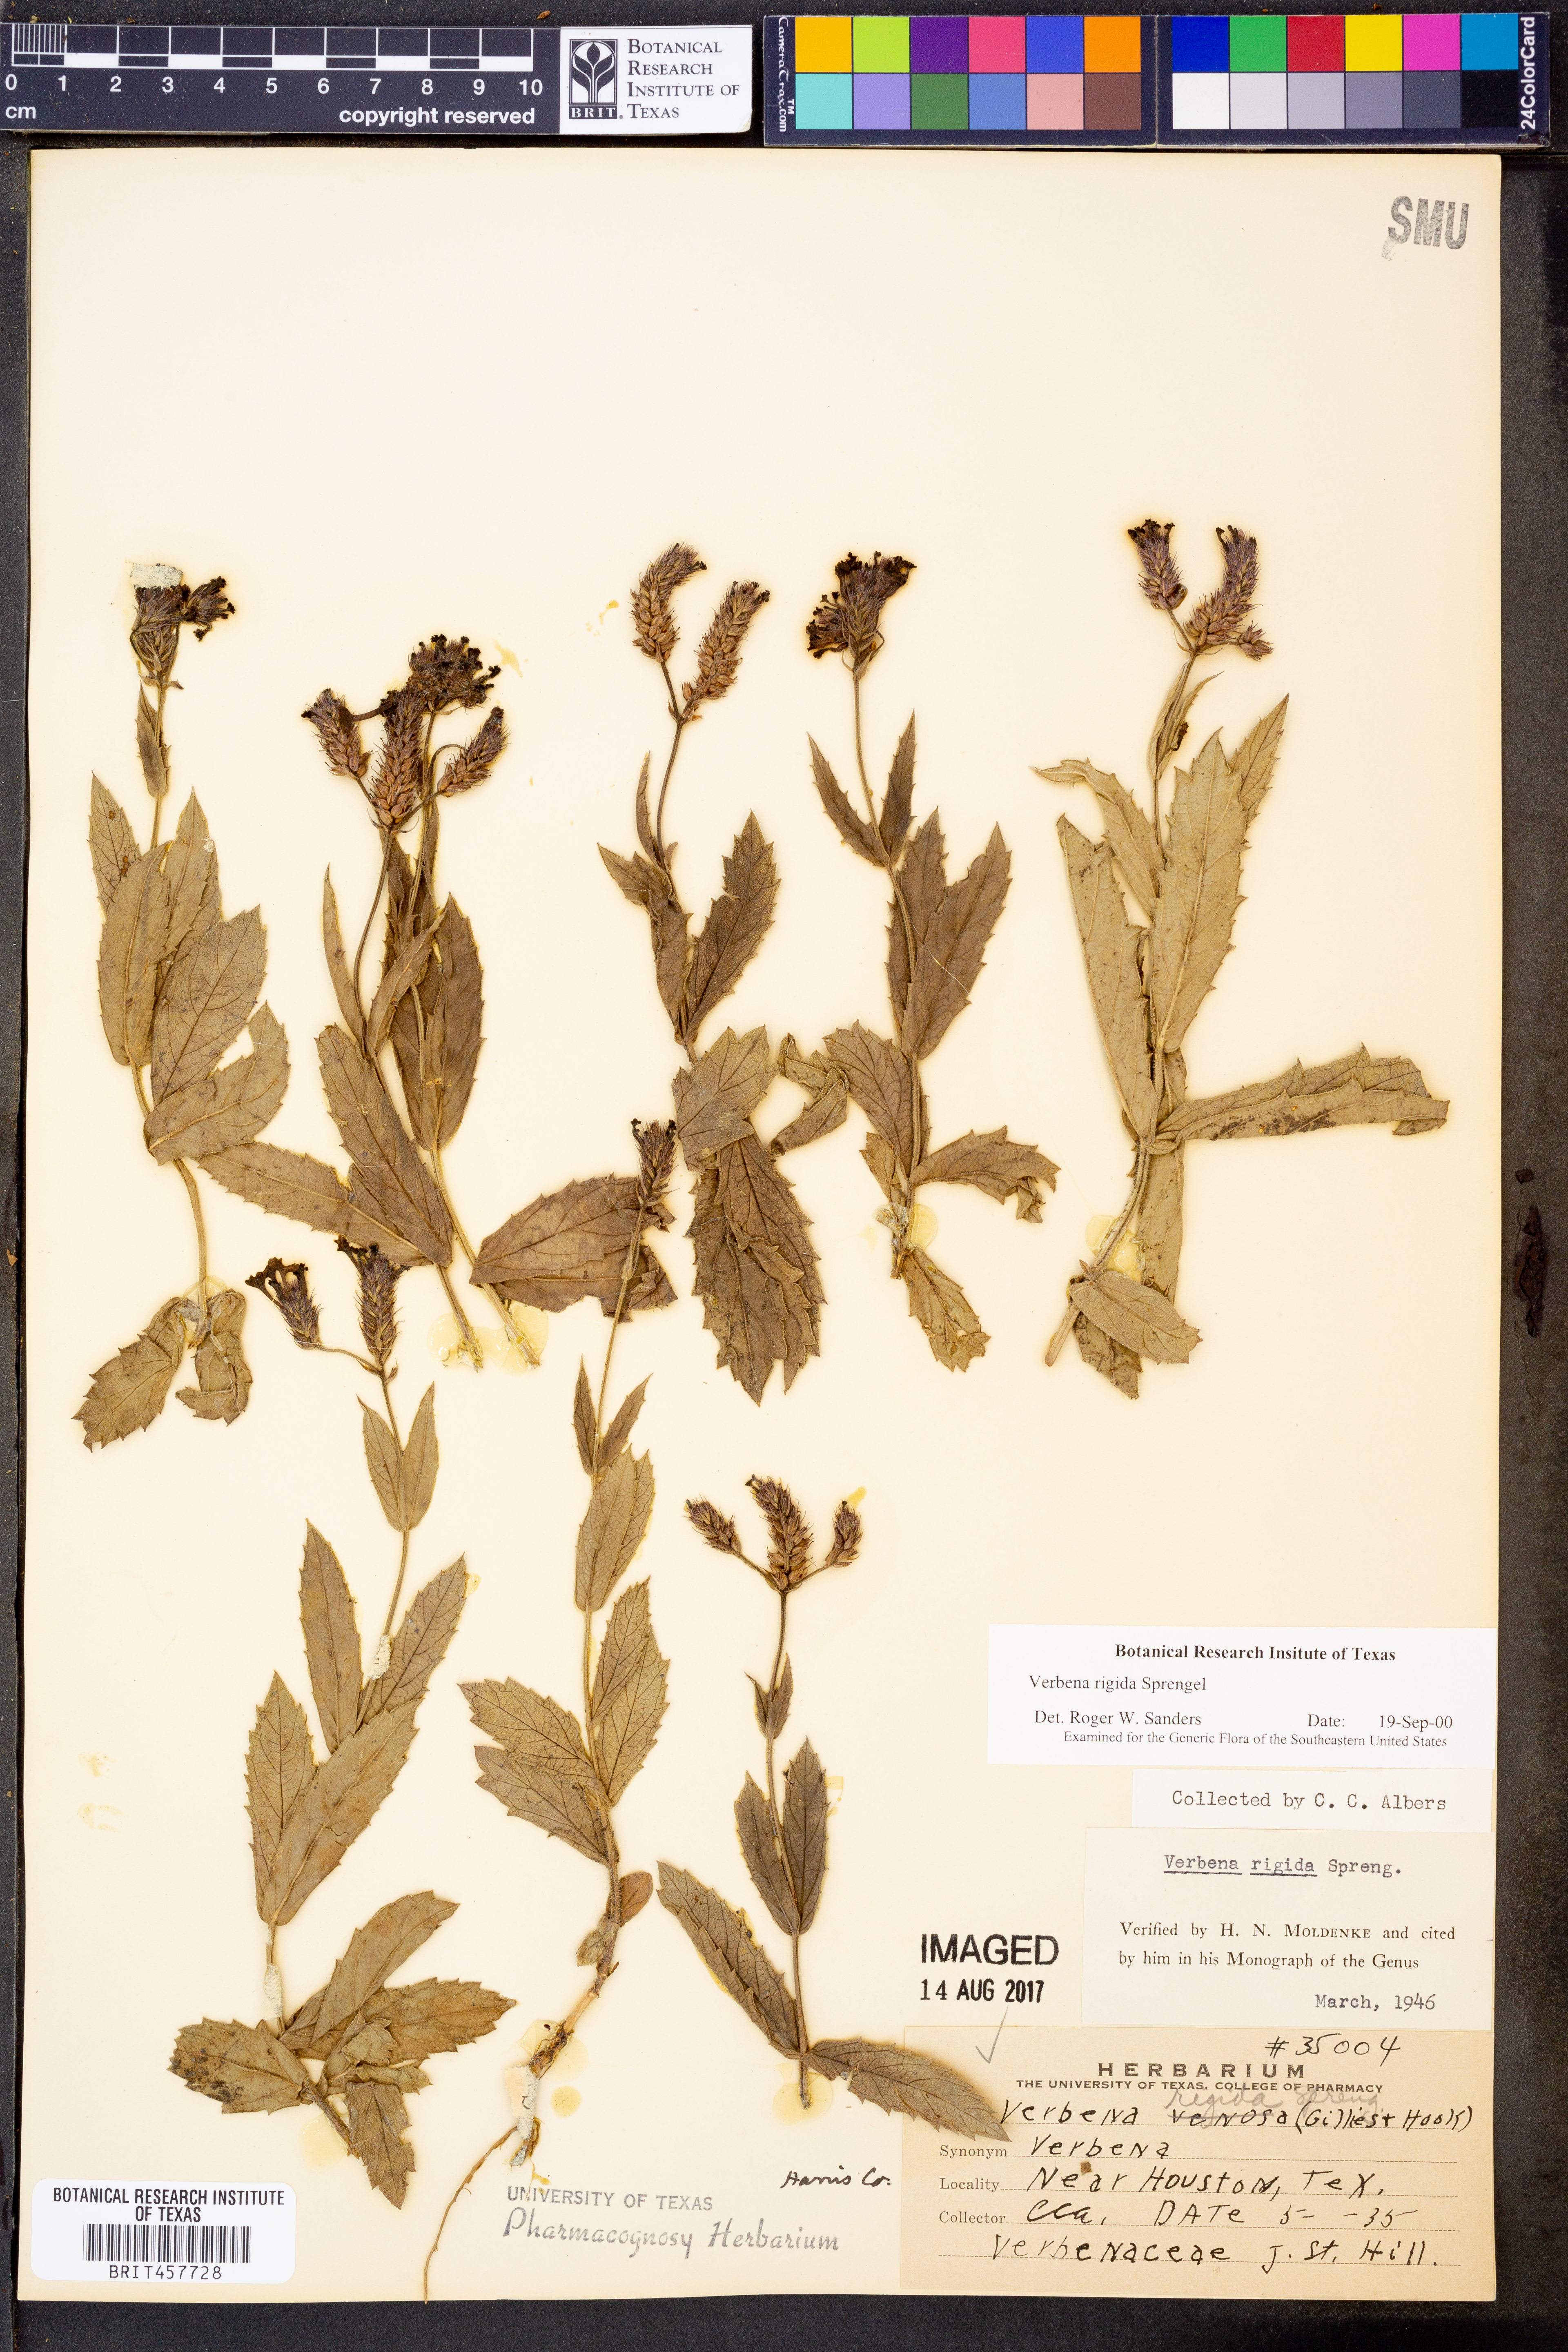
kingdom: Plantae
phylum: Tracheophyta
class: Magnoliopsida
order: Lamiales
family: Verbenaceae
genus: Verbena
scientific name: Verbena rigida
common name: Slender vervain
